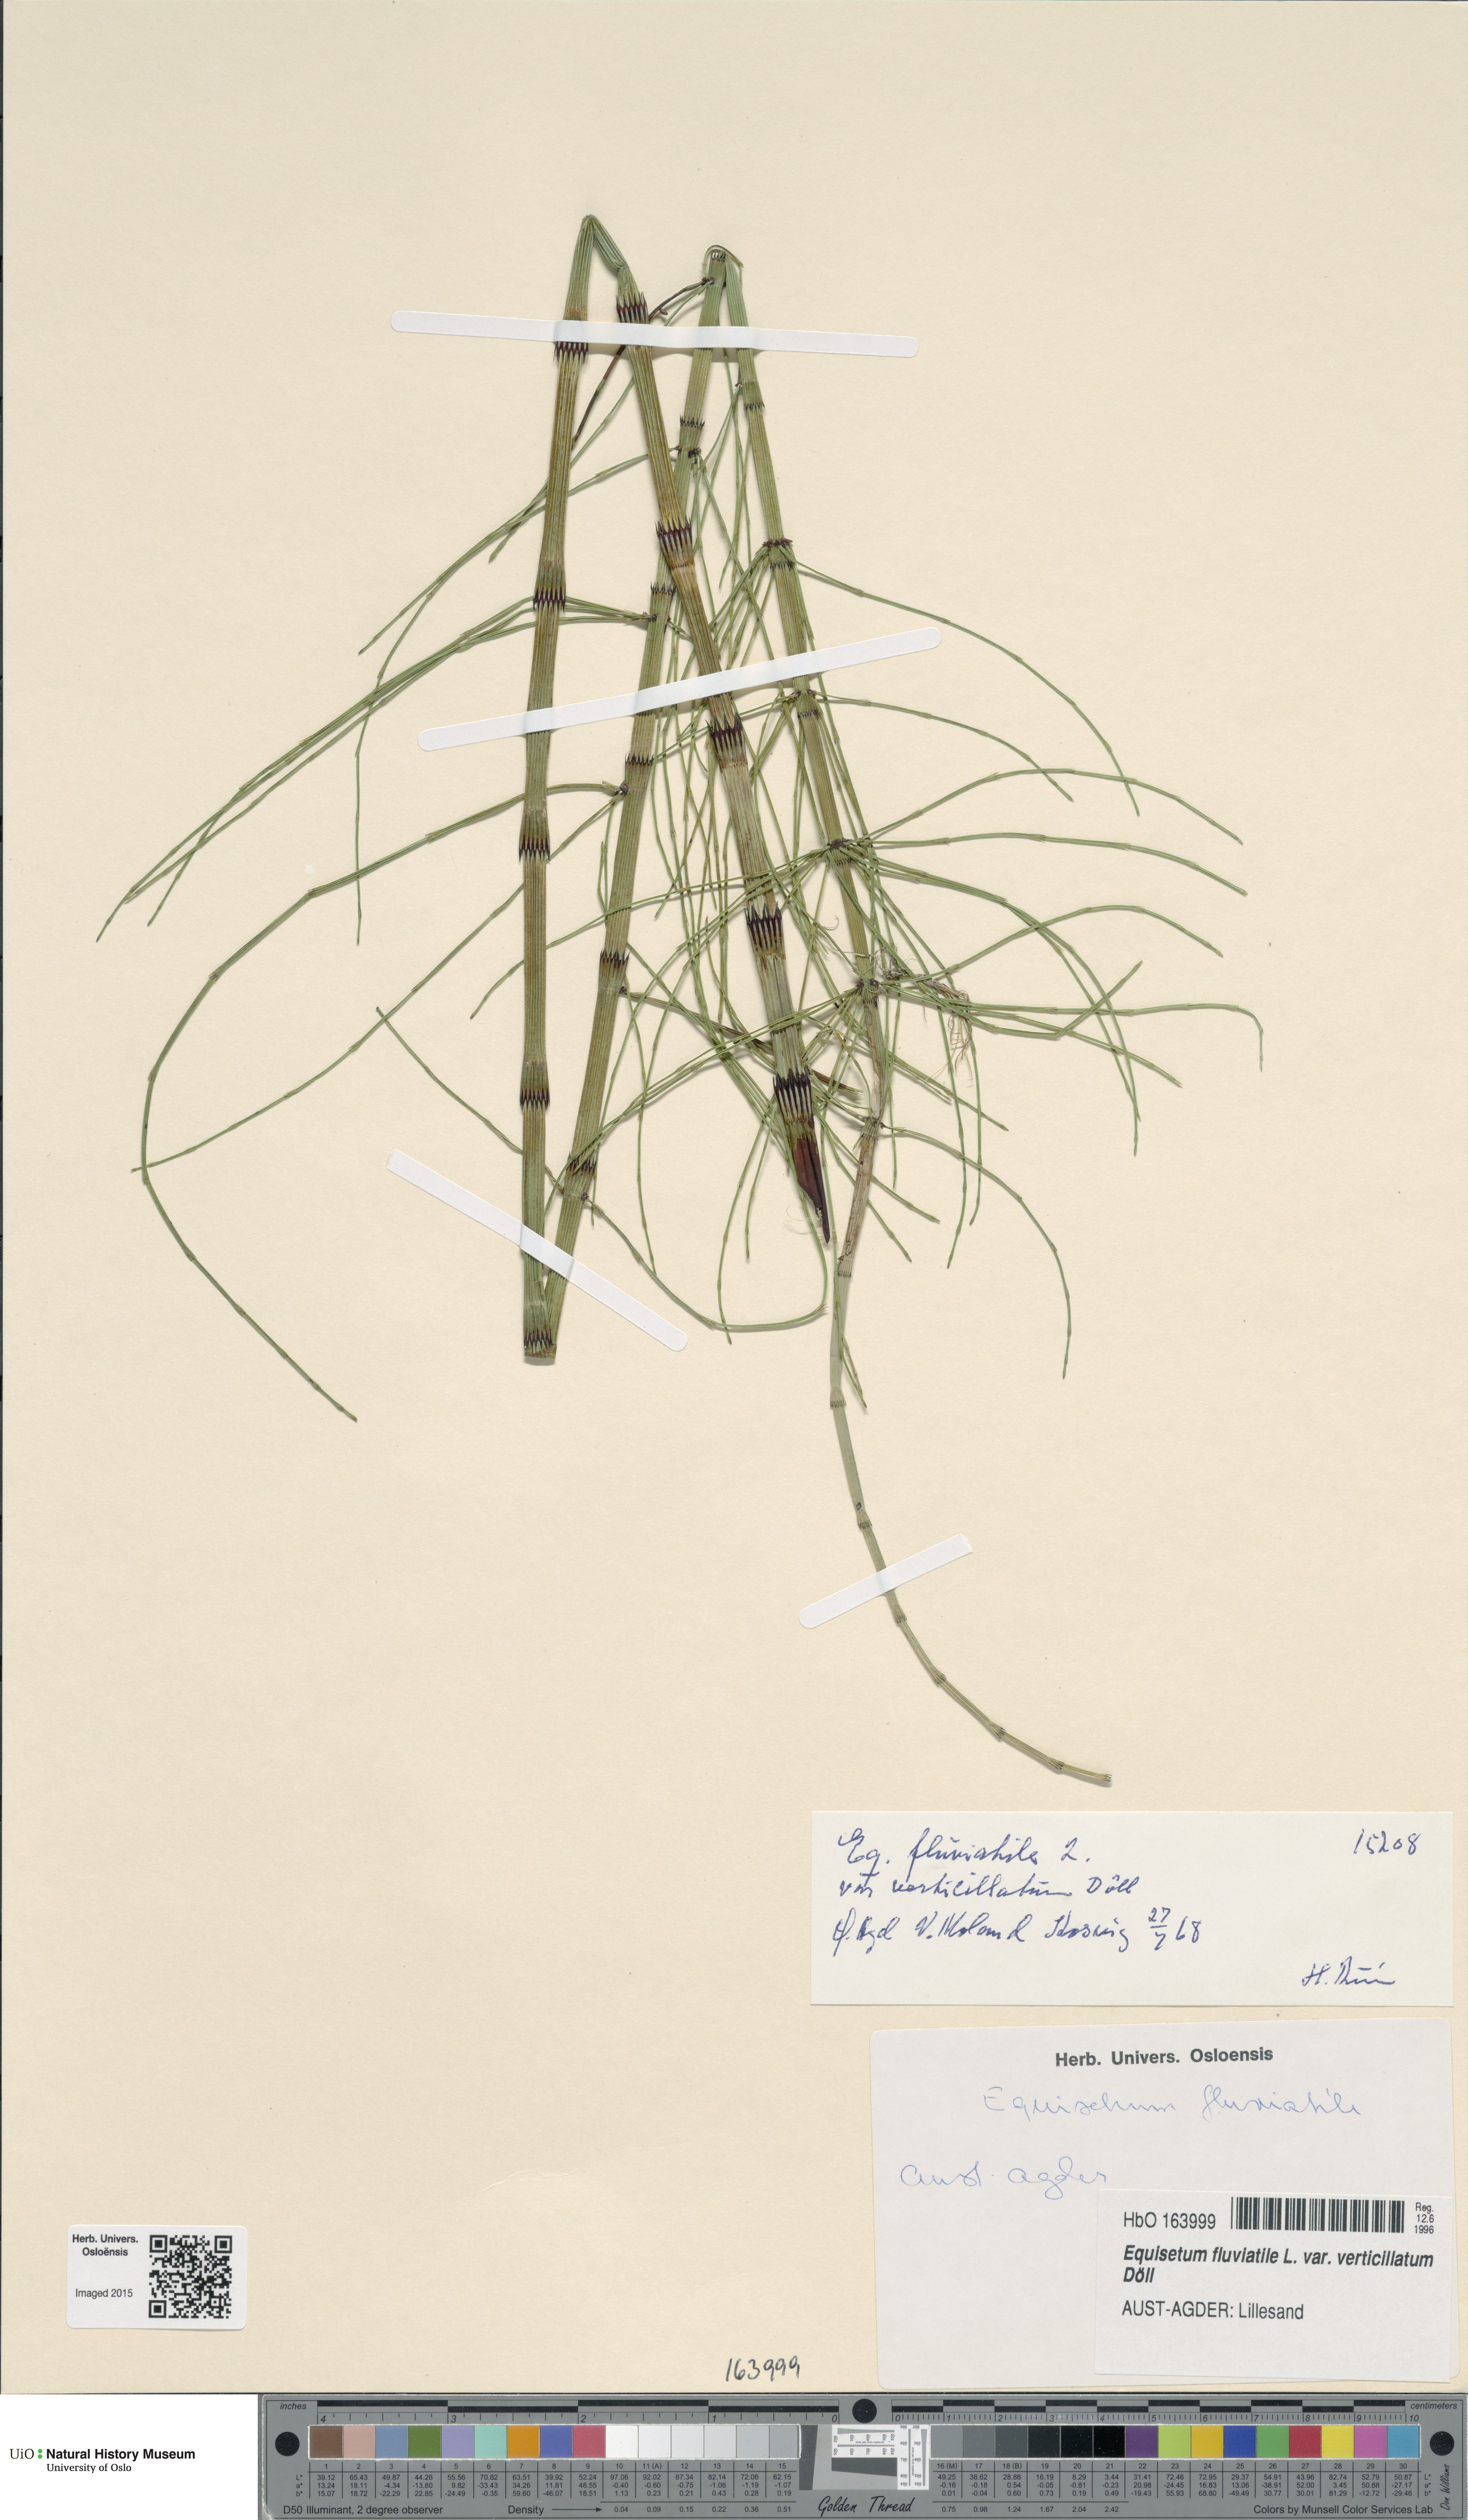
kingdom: Plantae
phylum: Tracheophyta
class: Polypodiopsida
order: Equisetales
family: Equisetaceae
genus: Equisetum
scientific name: Equisetum fluviatile
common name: Water horsetail
